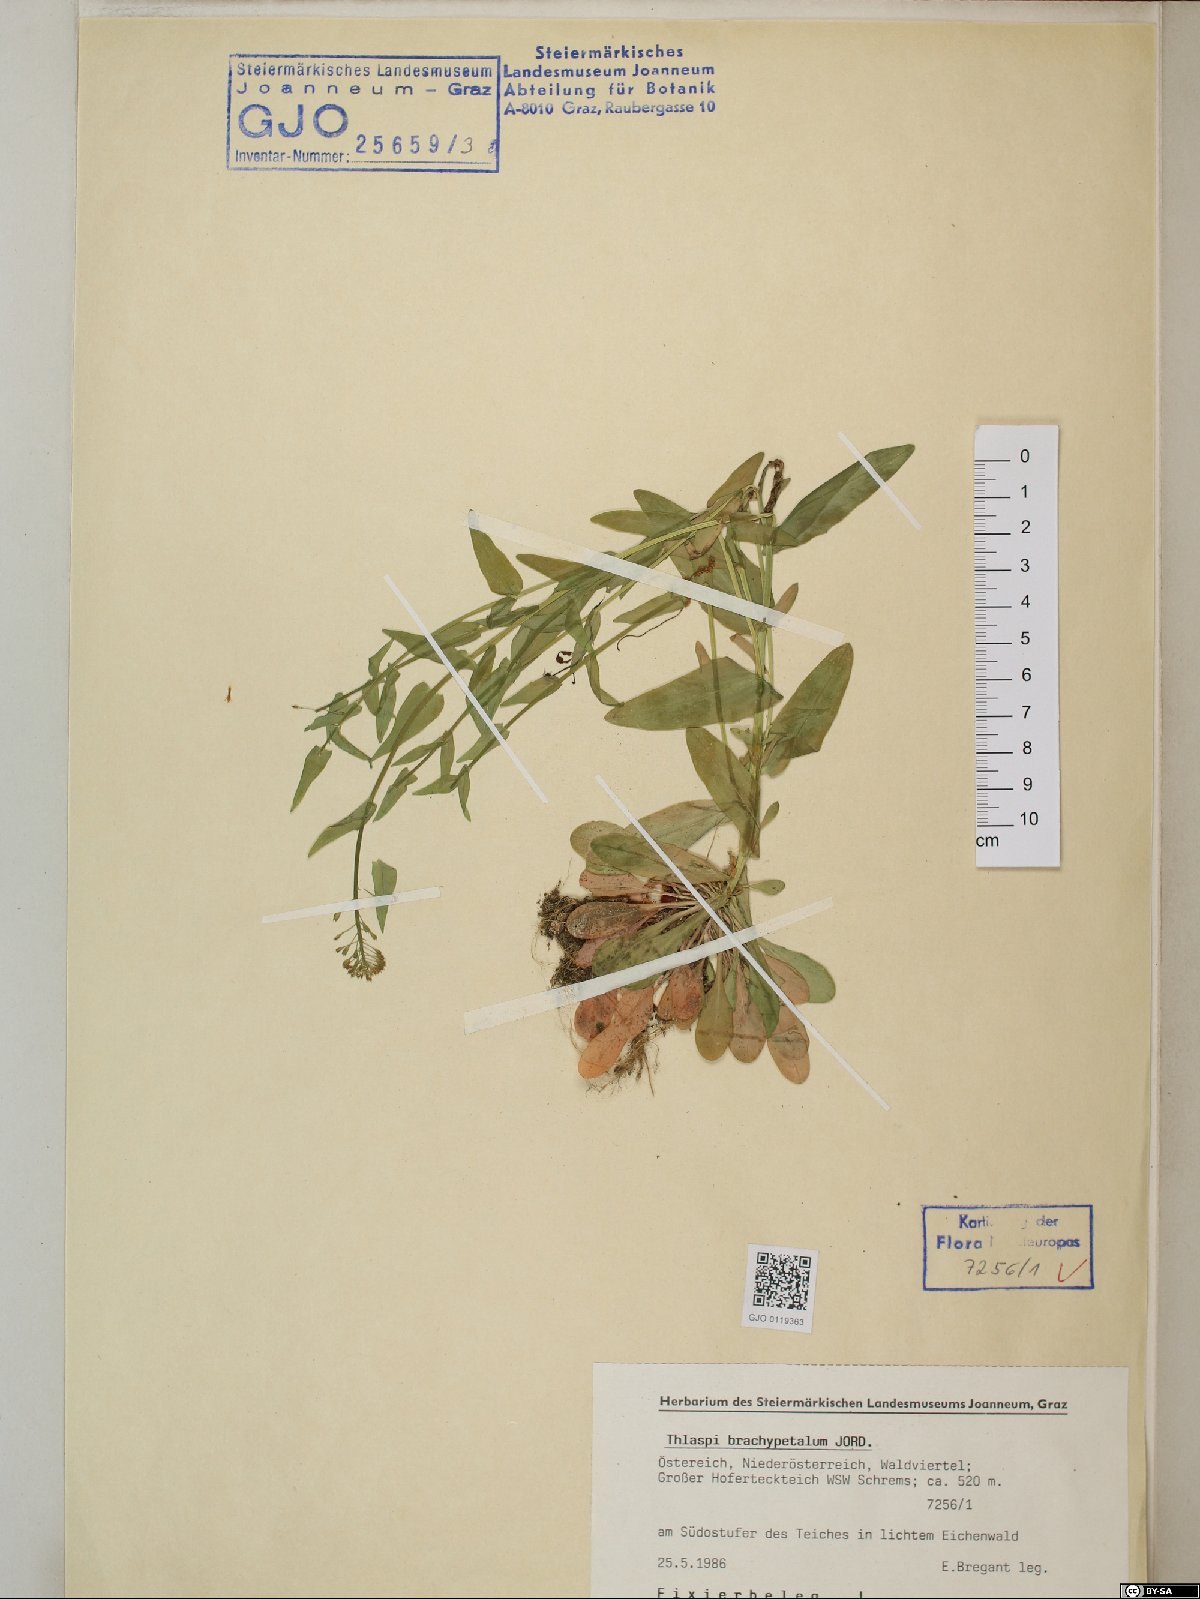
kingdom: Plantae
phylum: Tracheophyta
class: Magnoliopsida
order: Brassicales
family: Brassicaceae
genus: Noccaea
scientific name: Noccaea brachypetala
